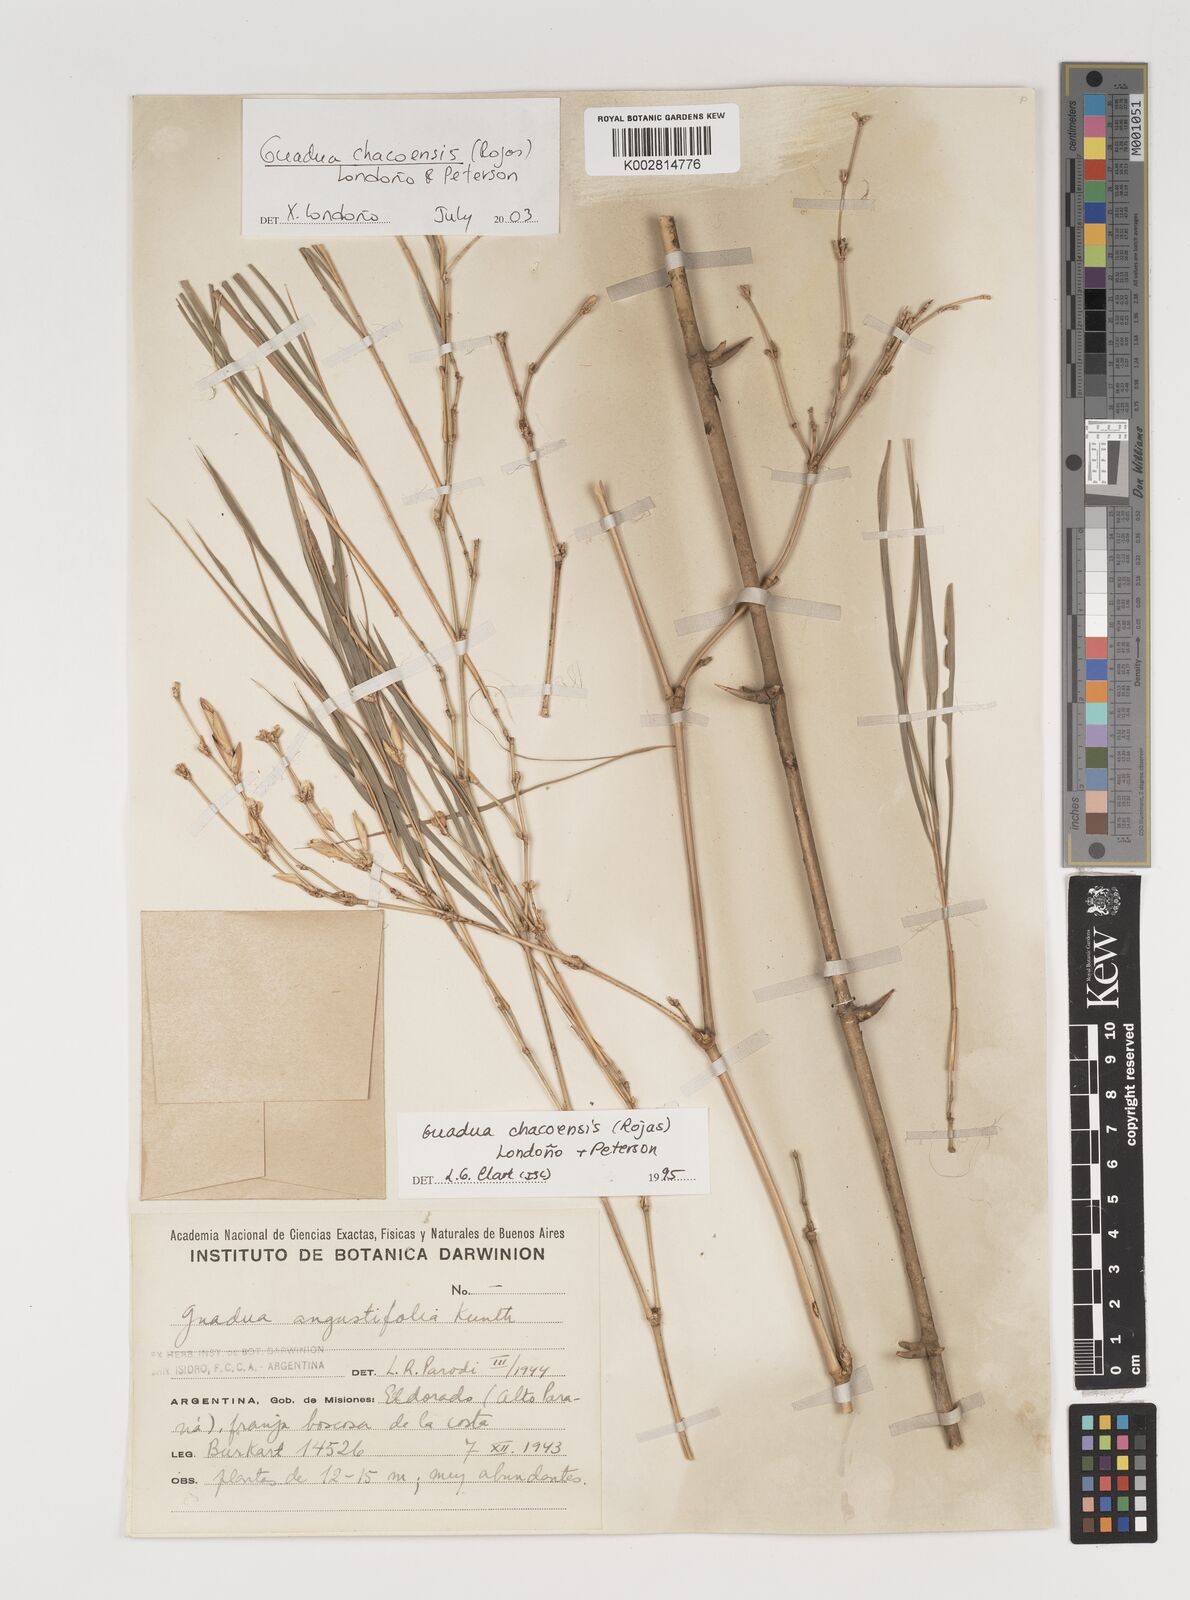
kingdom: Plantae
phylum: Tracheophyta
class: Liliopsida
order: Poales
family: Poaceae
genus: Guadua
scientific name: Guadua chacoensis
